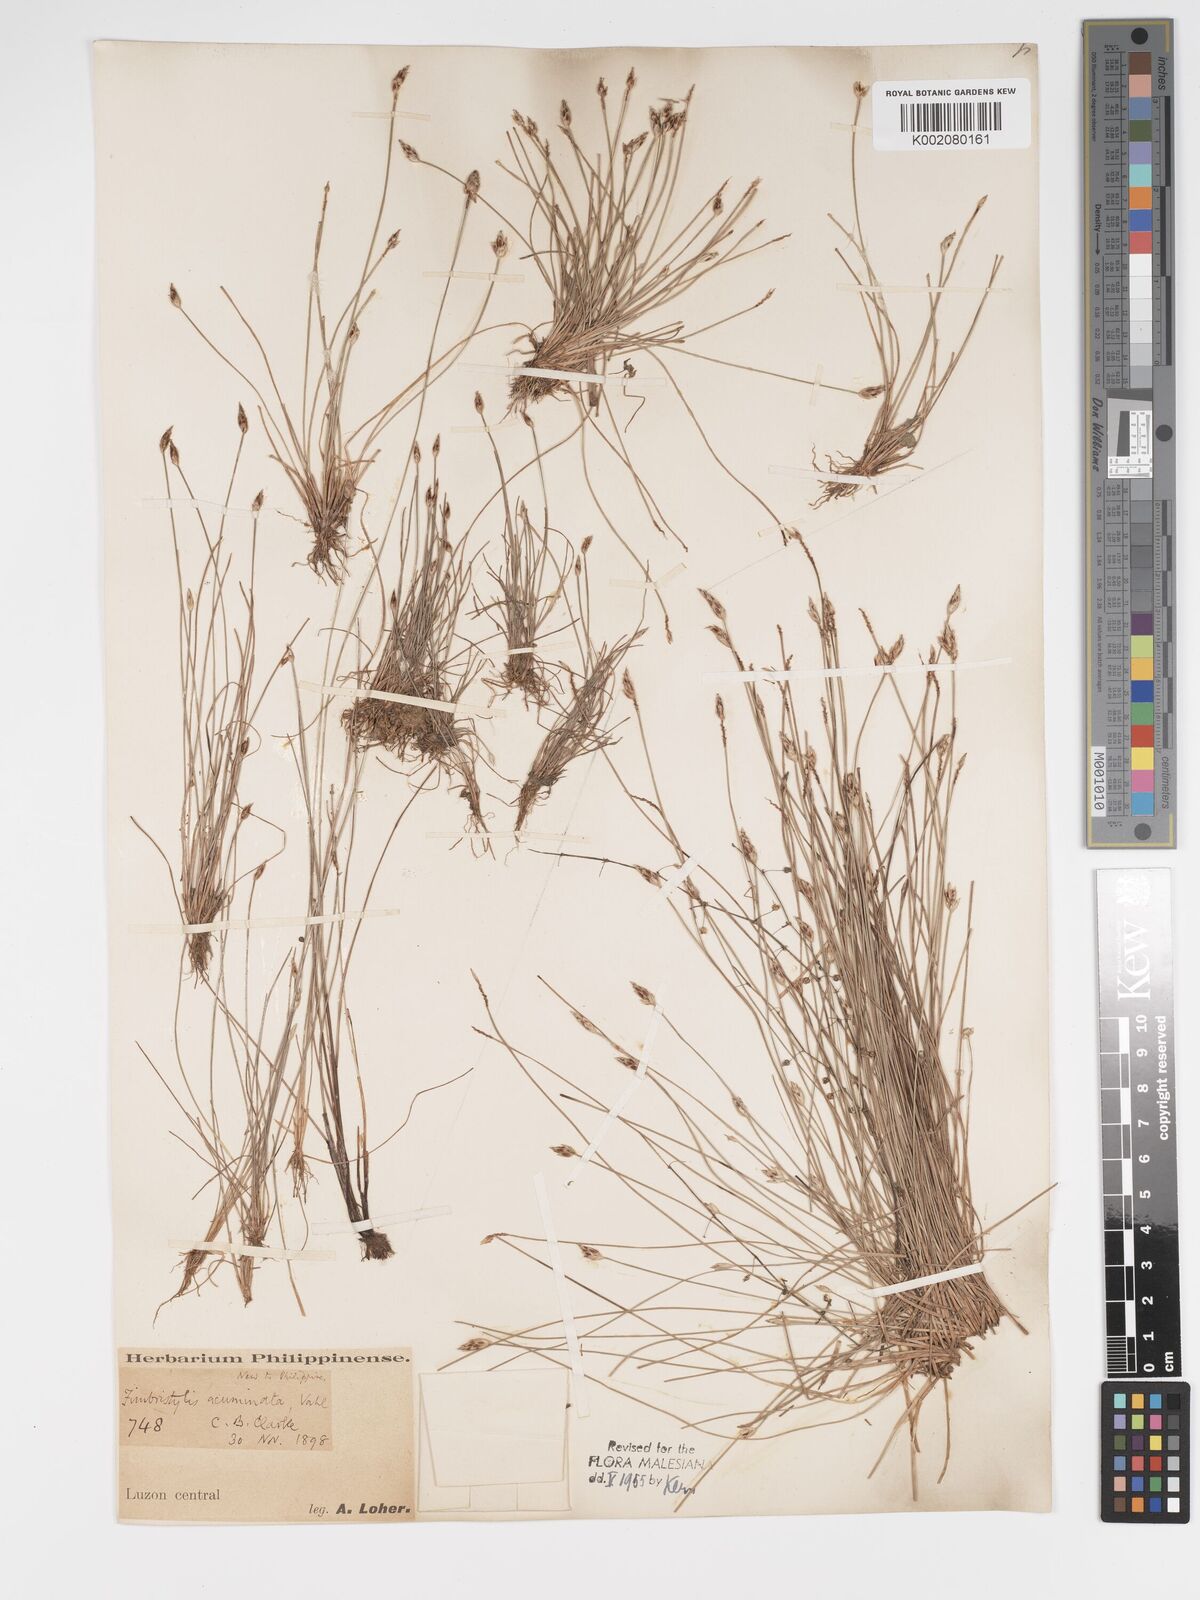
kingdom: Plantae
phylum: Tracheophyta
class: Liliopsida
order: Poales
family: Cyperaceae
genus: Fimbristylis
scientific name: Fimbristylis acuminata
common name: Pointed fimbristylis
